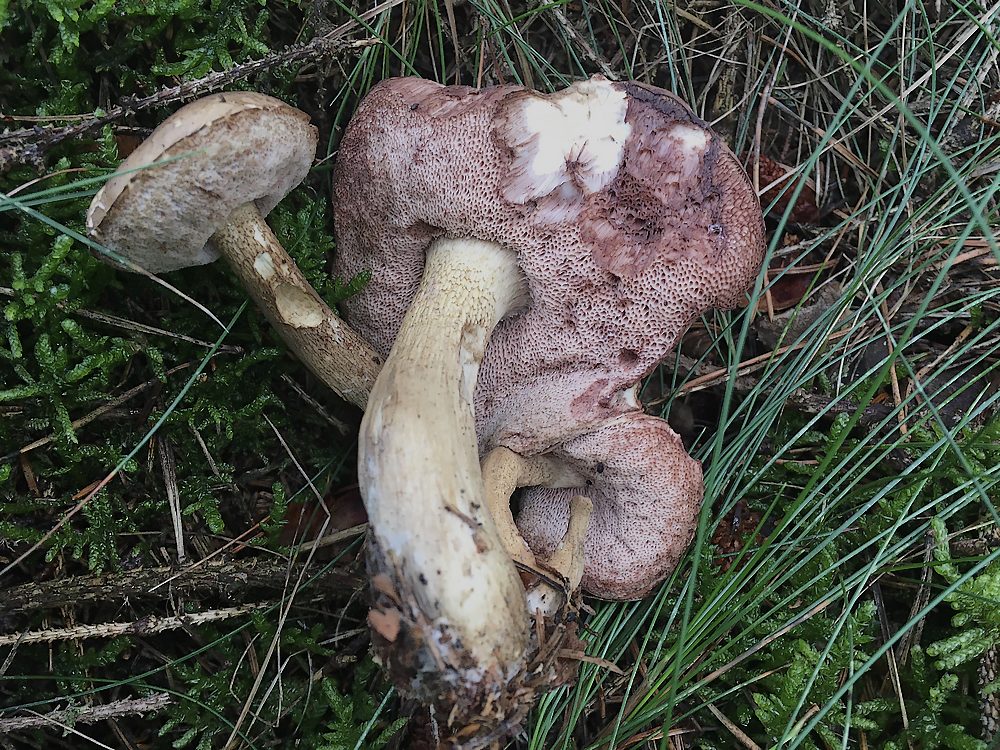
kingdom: Fungi
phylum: Basidiomycota
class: Agaricomycetes
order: Boletales
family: Boletaceae
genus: Tylopilus
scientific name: Tylopilus felleus
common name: galderørhat
